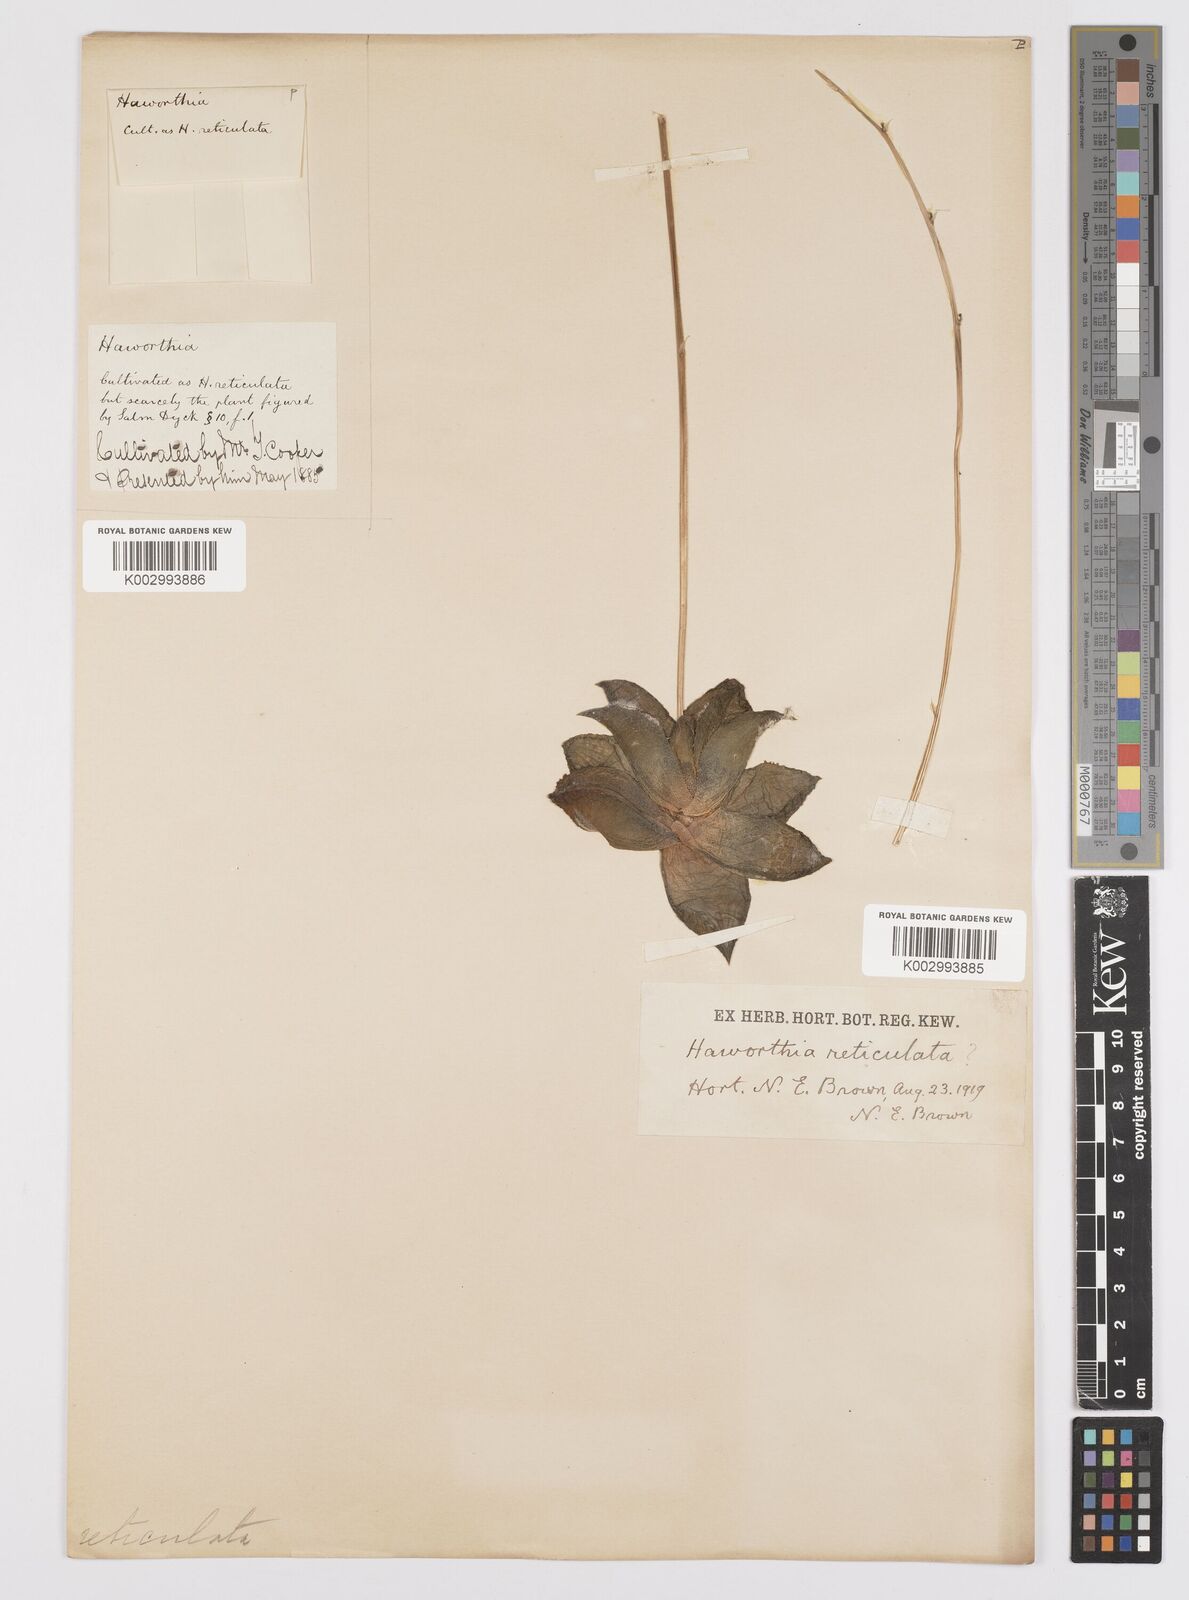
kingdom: Plantae
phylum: Tracheophyta
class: Liliopsida
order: Asparagales
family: Asphodelaceae
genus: Haworthia
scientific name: Haworthia reticulata
